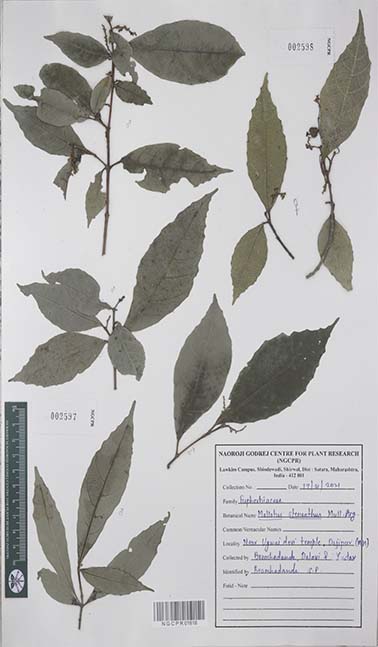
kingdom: Plantae
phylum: Tracheophyta
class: Magnoliopsida
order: Malpighiales
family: Euphorbiaceae
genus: Mallotus
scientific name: Mallotus resinosus
